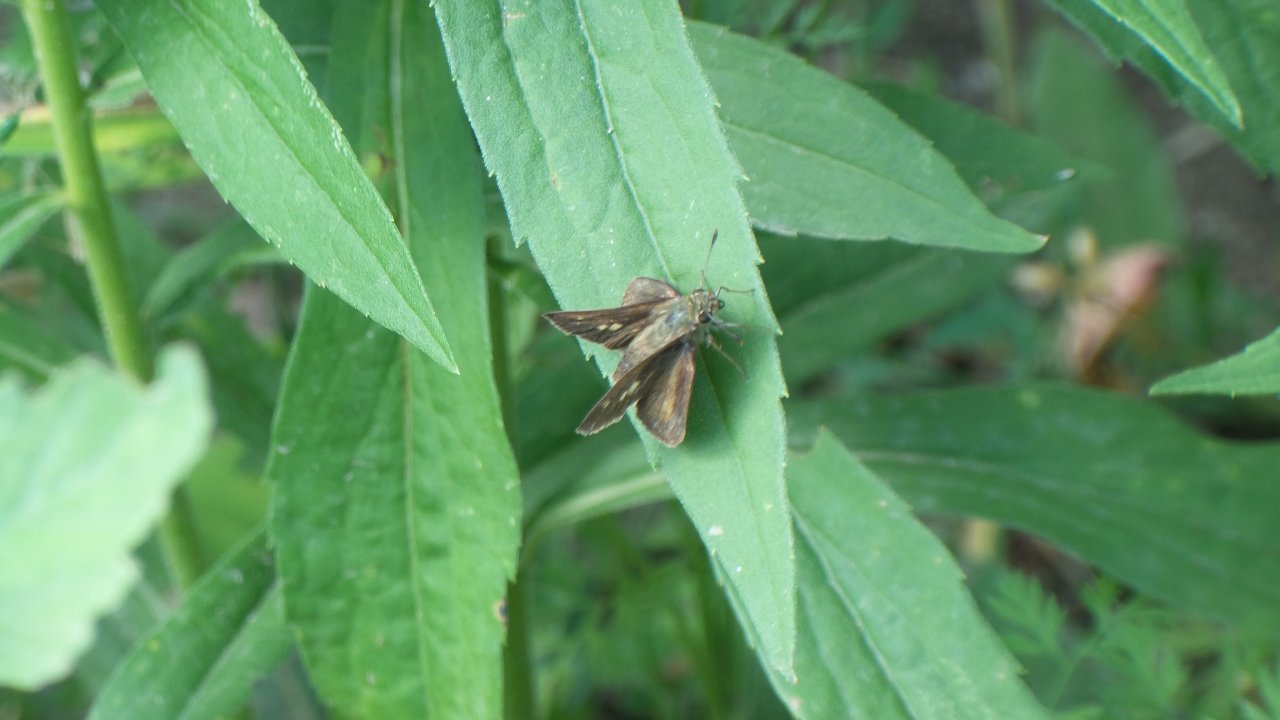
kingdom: Animalia
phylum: Arthropoda
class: Insecta
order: Lepidoptera
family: Hesperiidae
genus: Polites
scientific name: Polites egeremet
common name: Northern Broken-Dash
